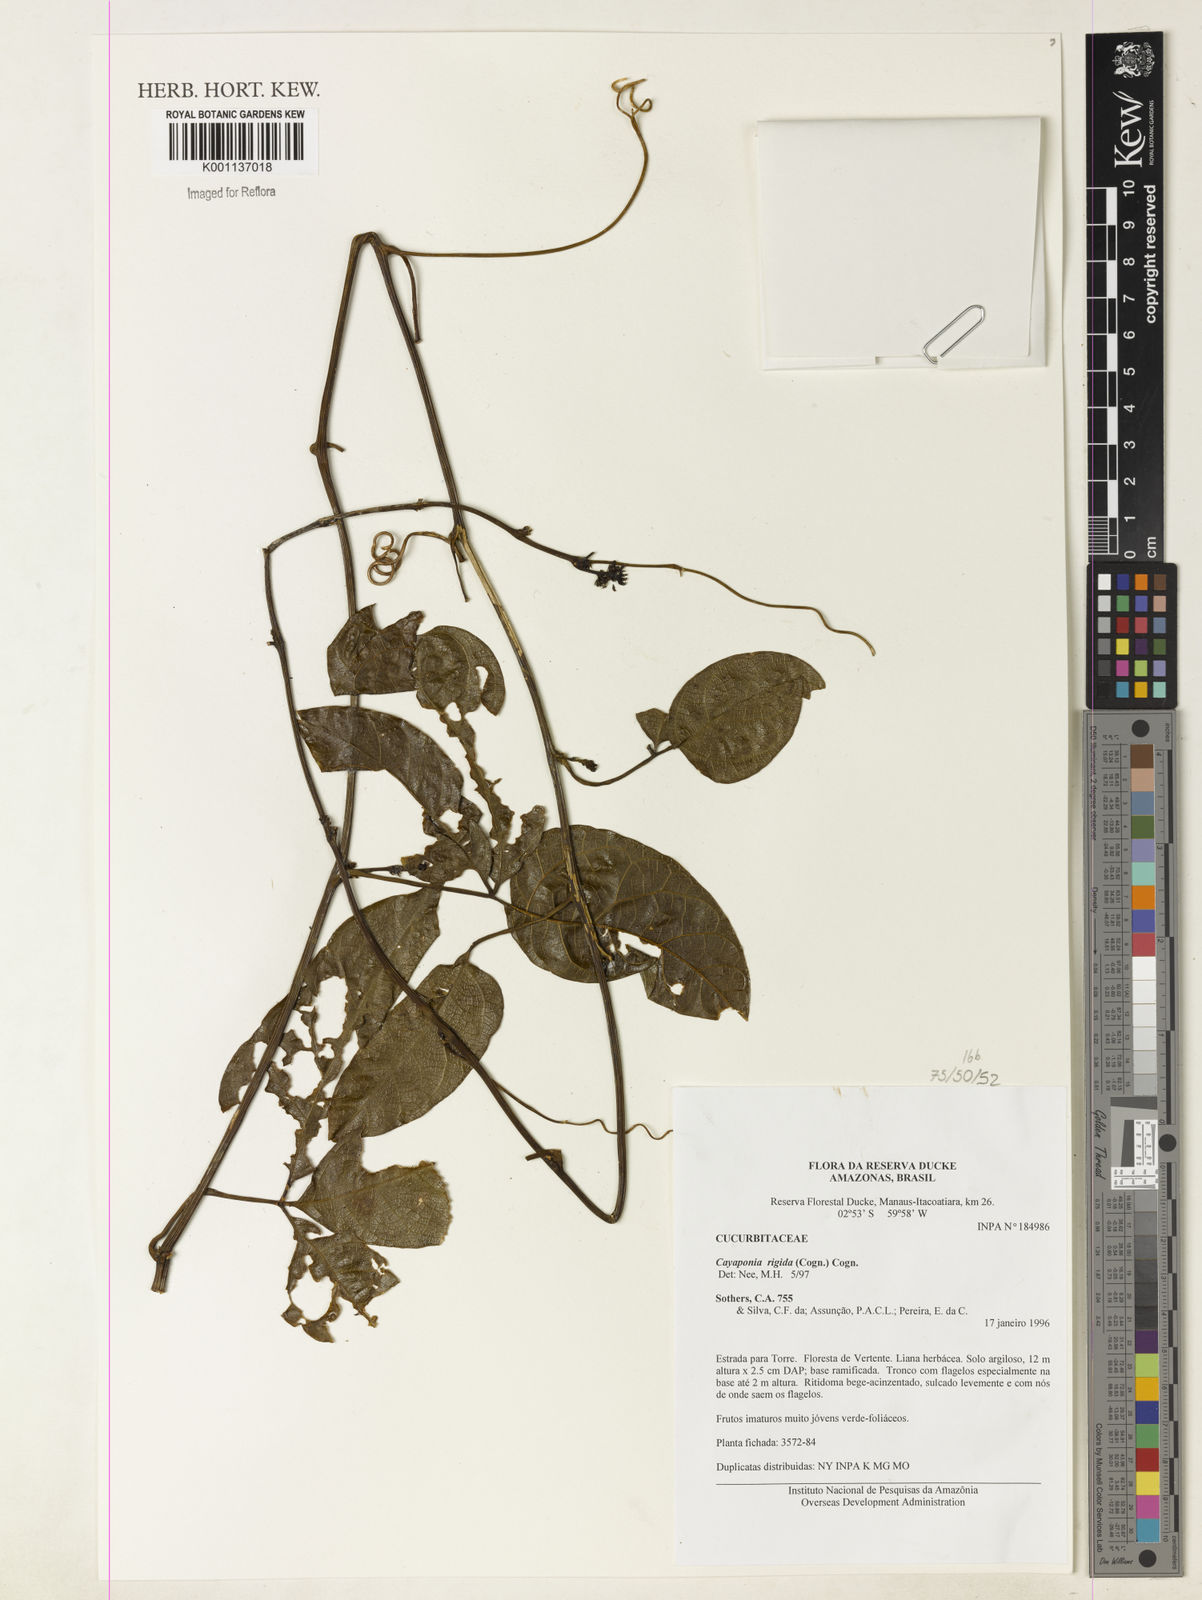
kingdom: Plantae
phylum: Tracheophyta
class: Magnoliopsida
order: Cucurbitales
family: Cucurbitaceae
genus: Cayaponia
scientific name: Cayaponia rigida
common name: Boskomkommer
